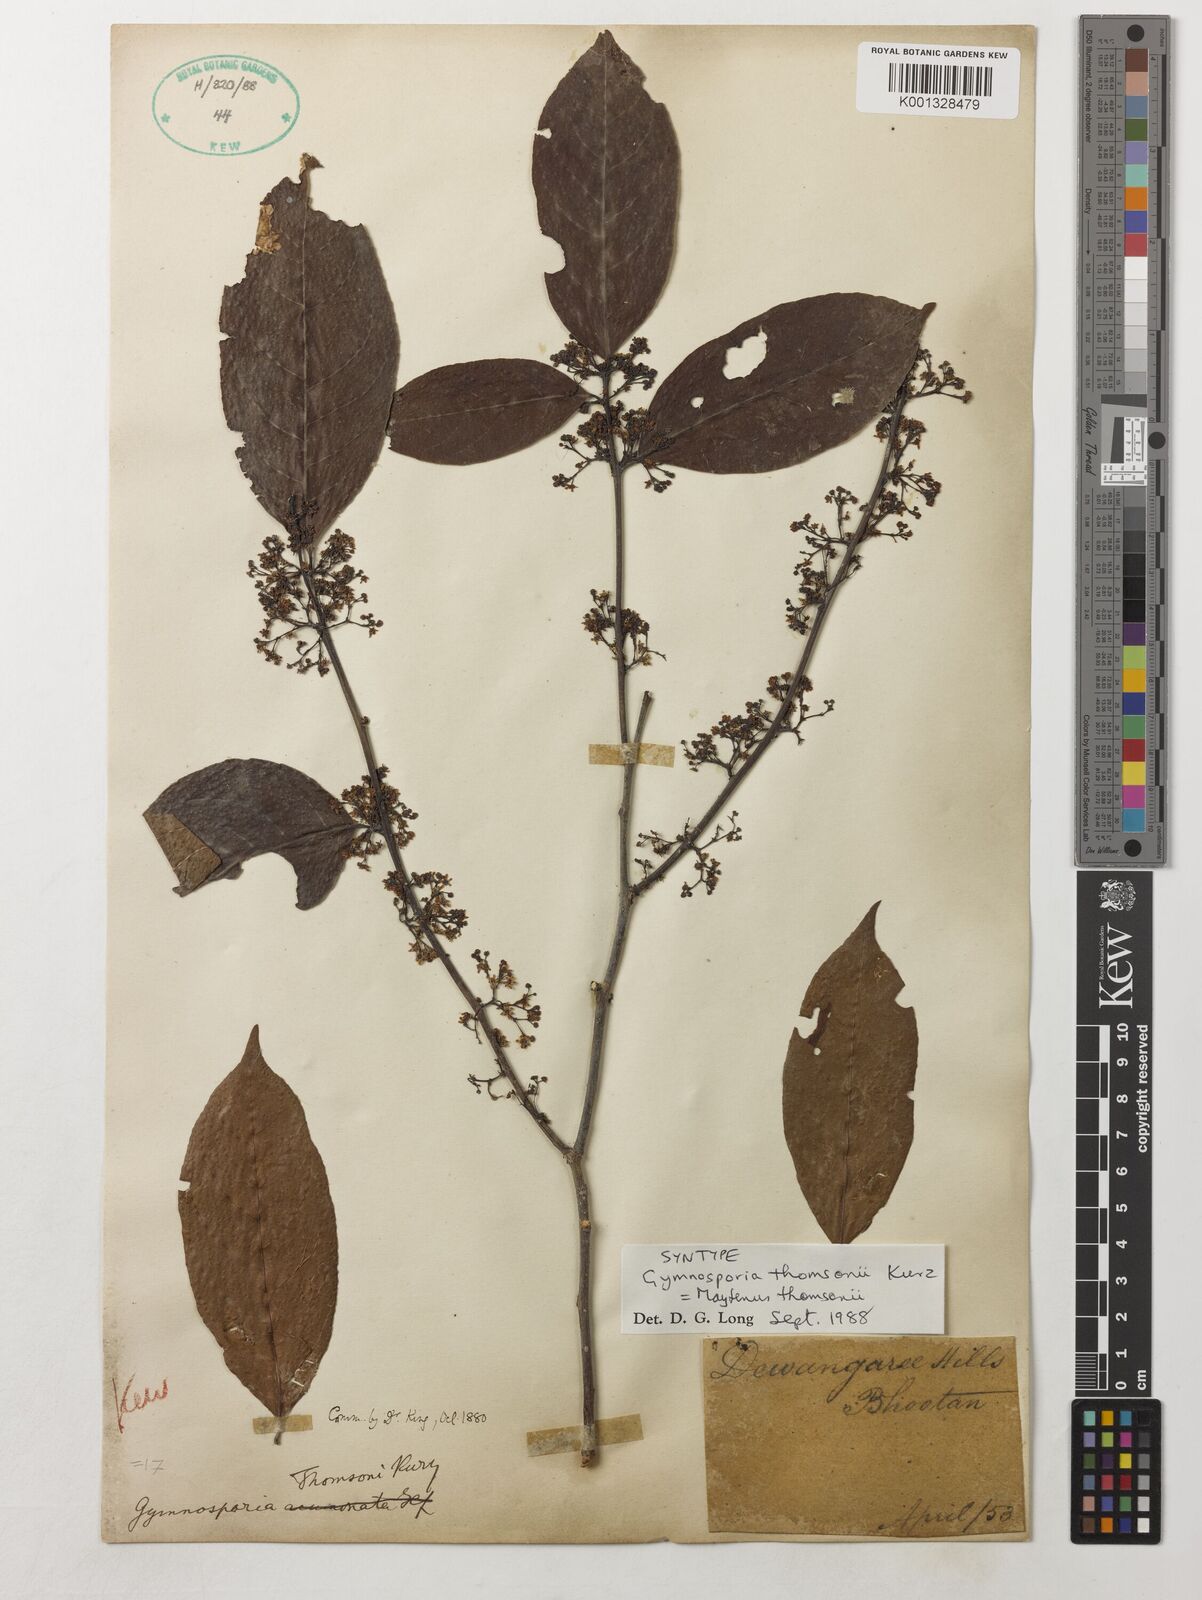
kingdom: Plantae
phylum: Tracheophyta
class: Magnoliopsida
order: Celastrales
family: Celastraceae
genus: Gymnosporia
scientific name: Gymnosporia thomsonii
